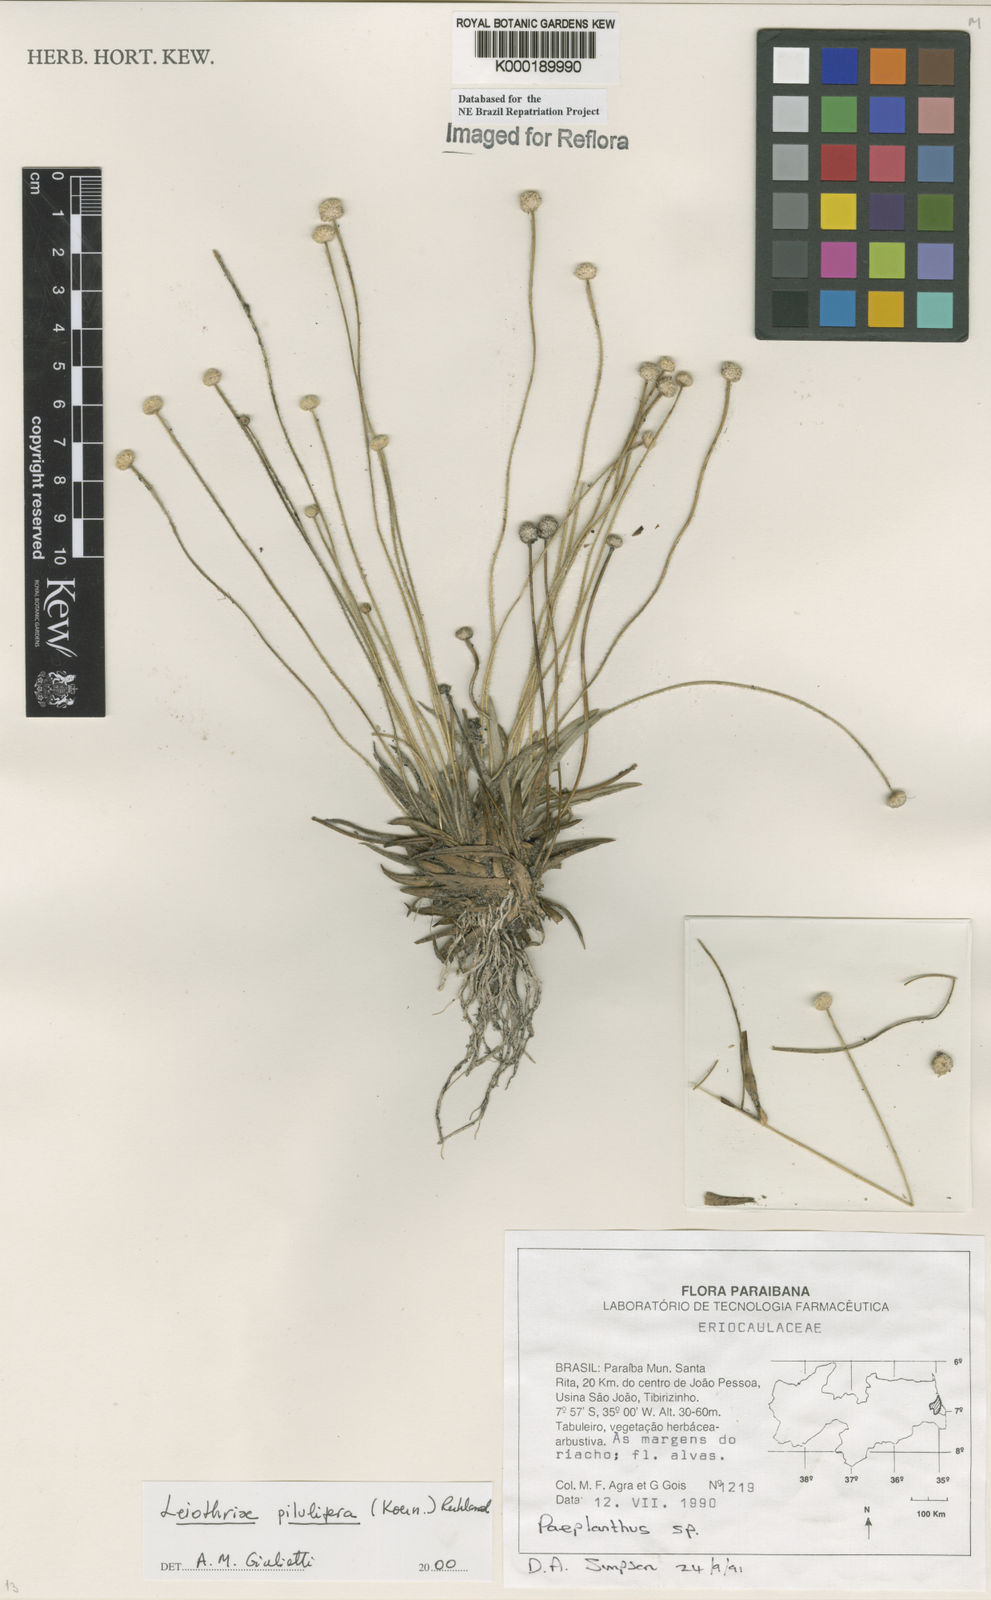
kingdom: Plantae
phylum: Tracheophyta
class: Liliopsida
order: Poales
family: Eriocaulaceae
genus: Leiothrix
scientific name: Leiothrix pilulifera
